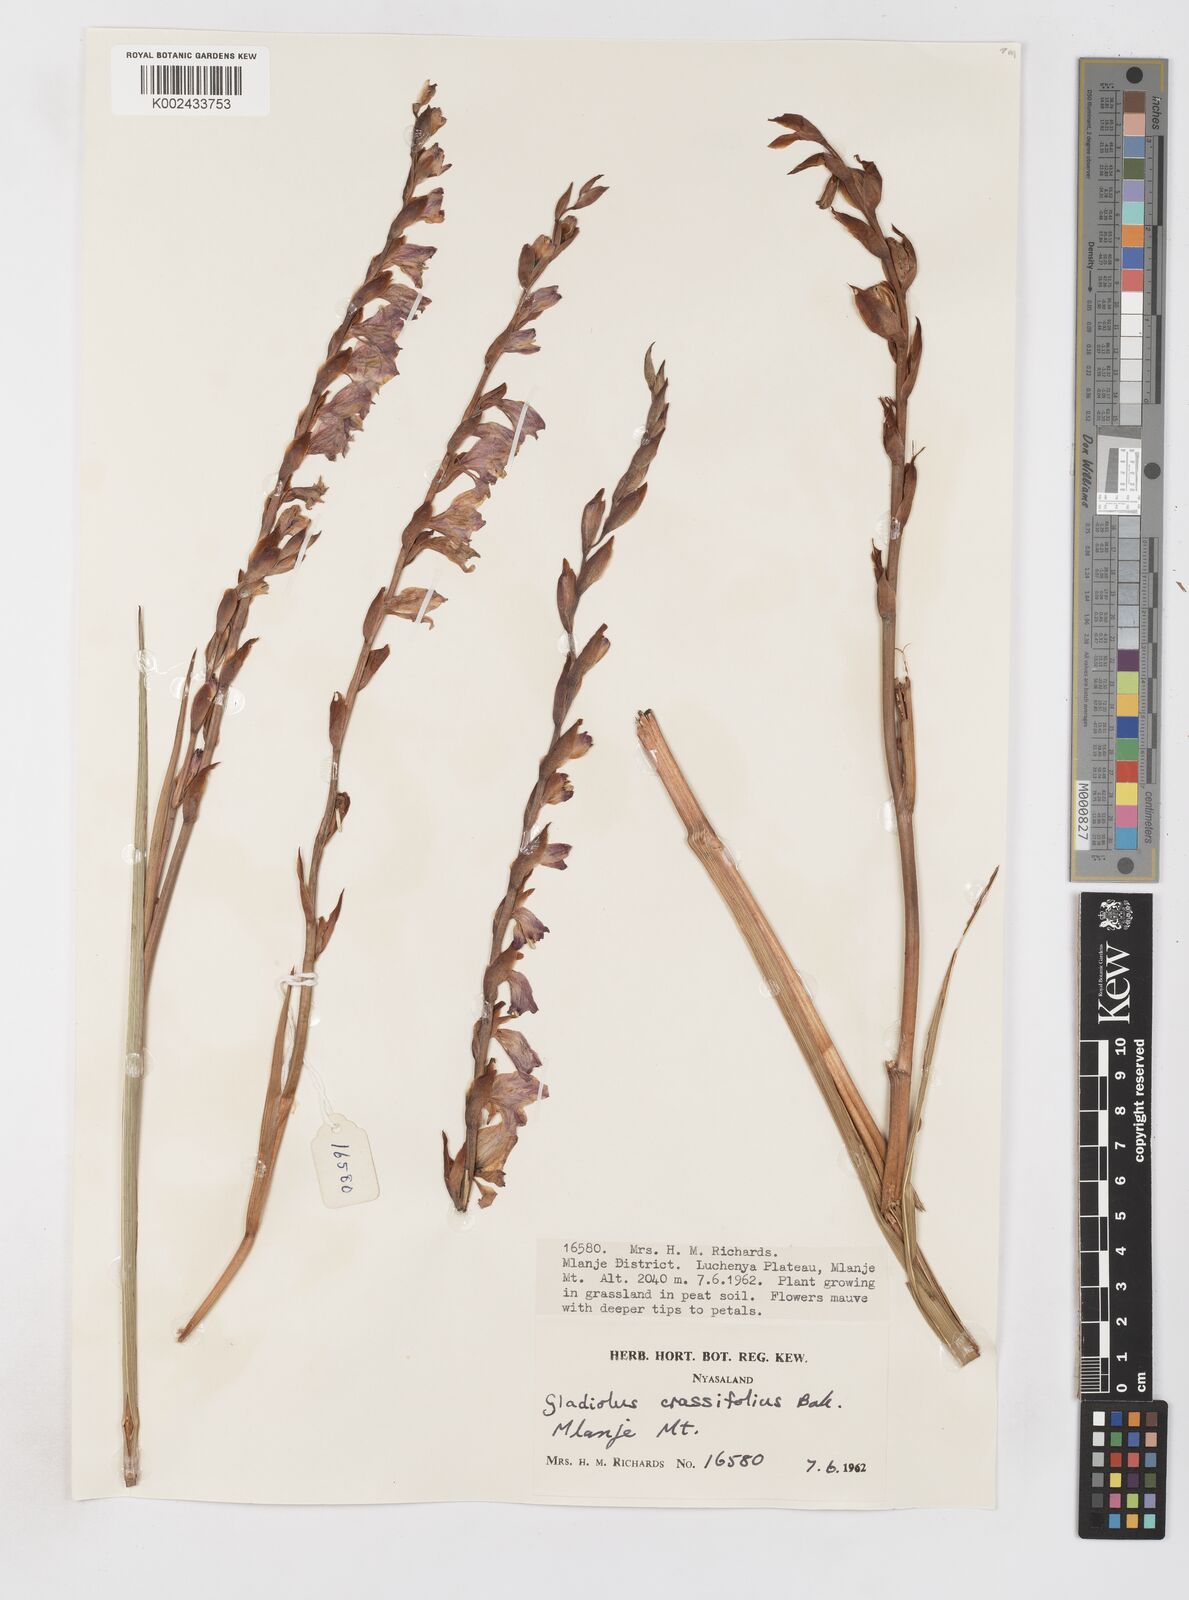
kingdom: Plantae
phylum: Tracheophyta
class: Liliopsida
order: Asparagales
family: Iridaceae
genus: Gladiolus
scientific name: Gladiolus crassifolius
